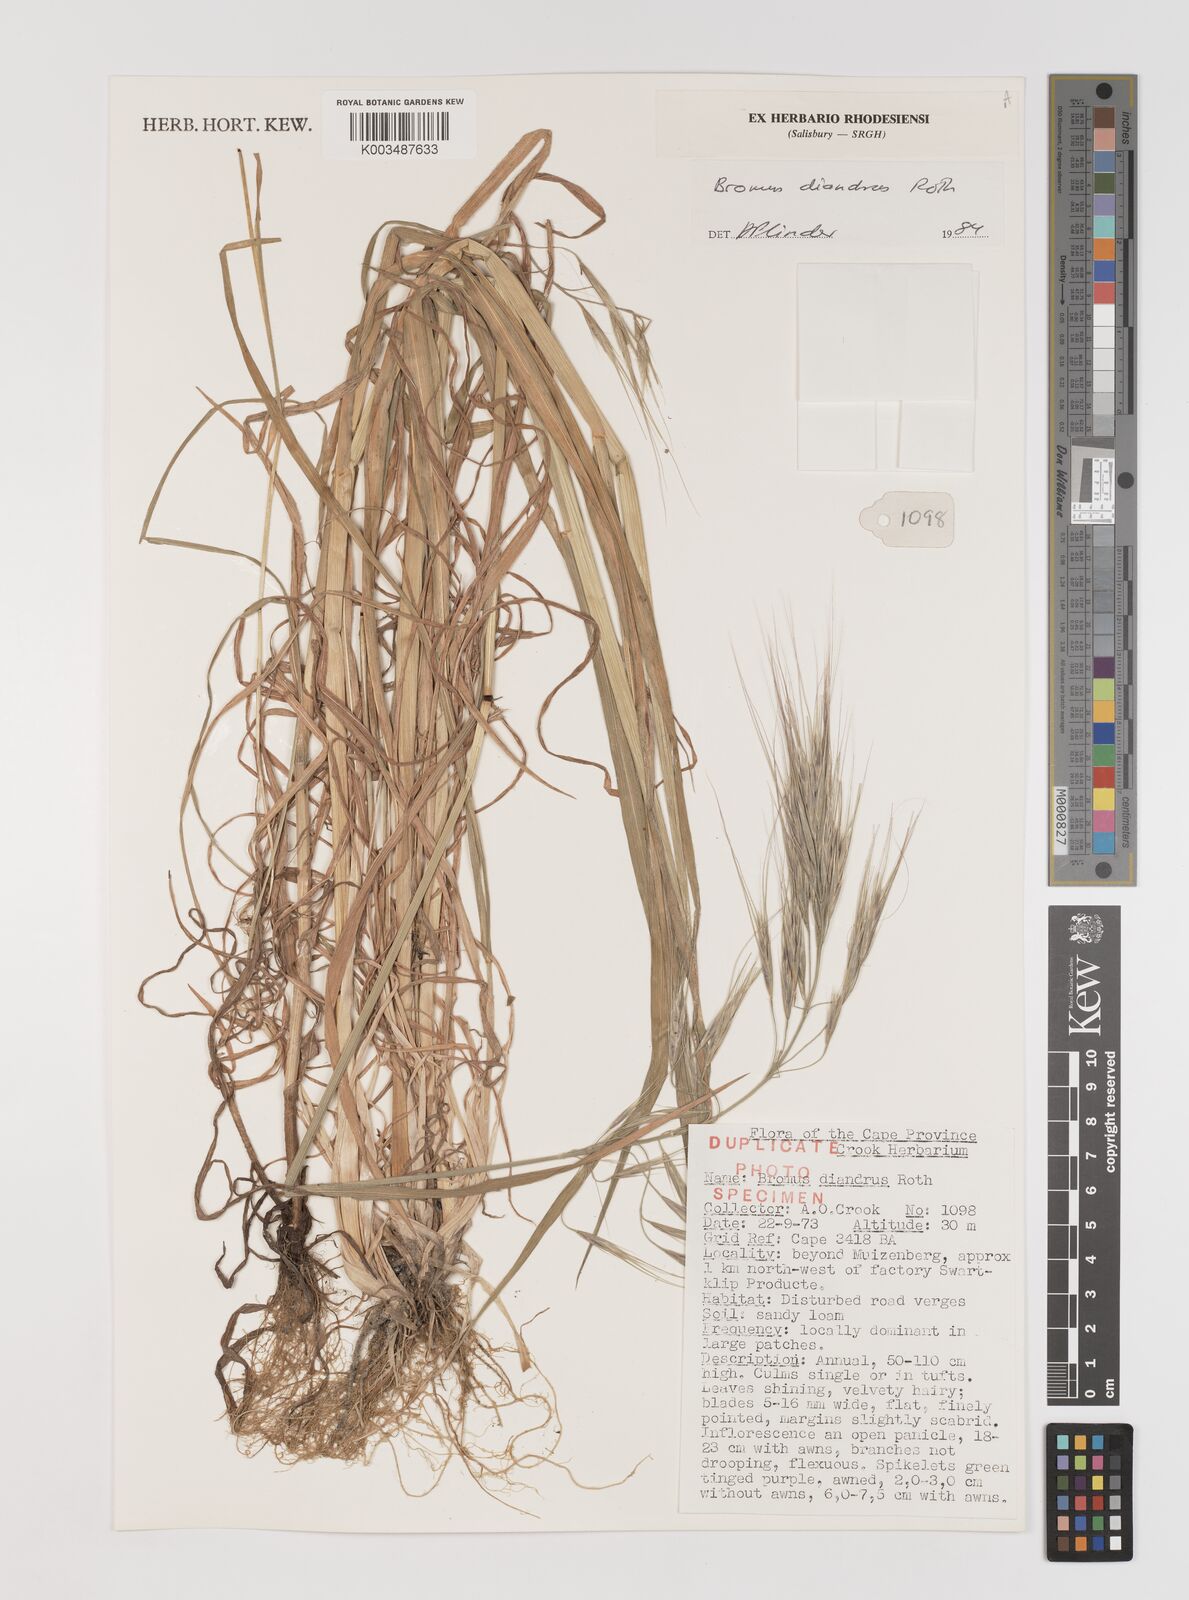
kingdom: Plantae
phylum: Tracheophyta
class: Liliopsida
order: Poales
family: Poaceae
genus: Bromus
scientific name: Bromus diandrus
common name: Ripgut brome
